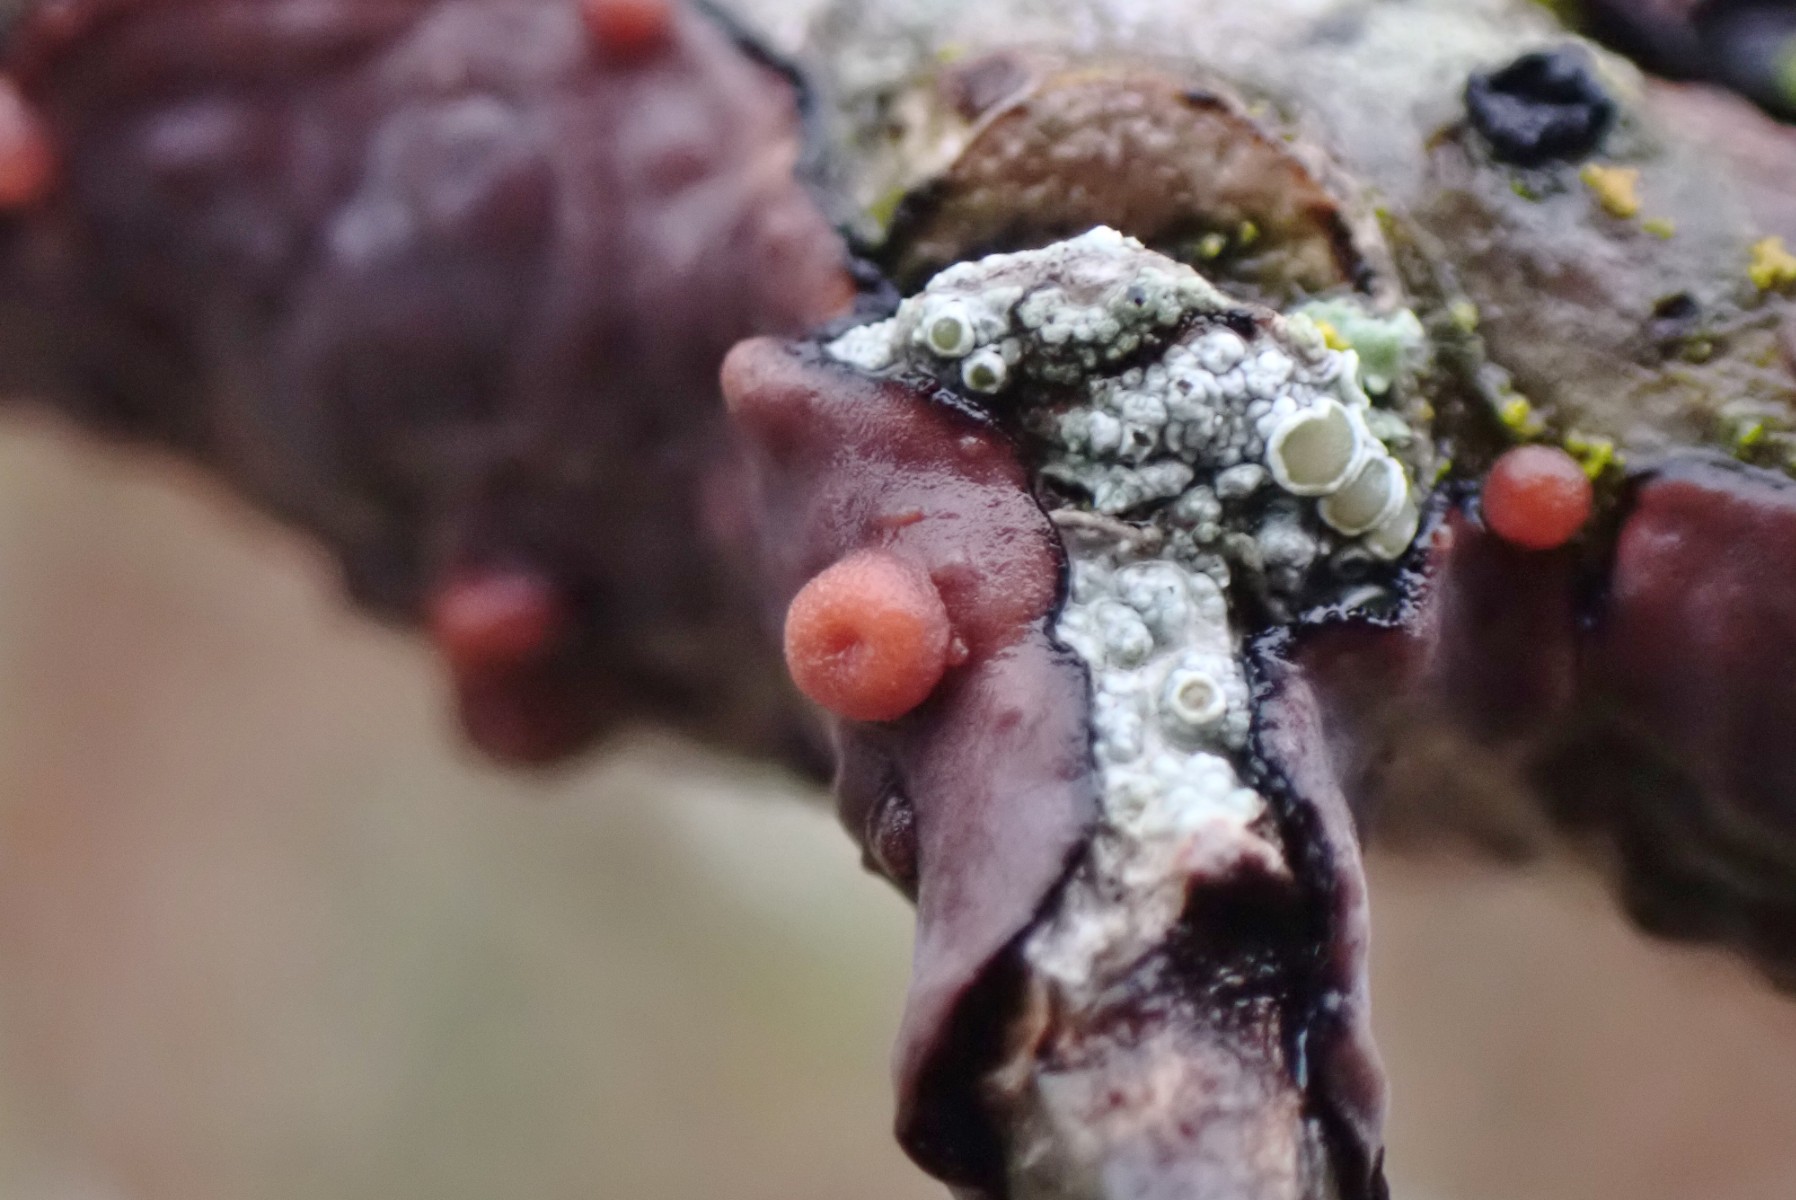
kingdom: Fungi
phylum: Basidiomycota
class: Pucciniomycetes
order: Platygloeales
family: Platygloeaceae
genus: Platygloea
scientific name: Platygloea
